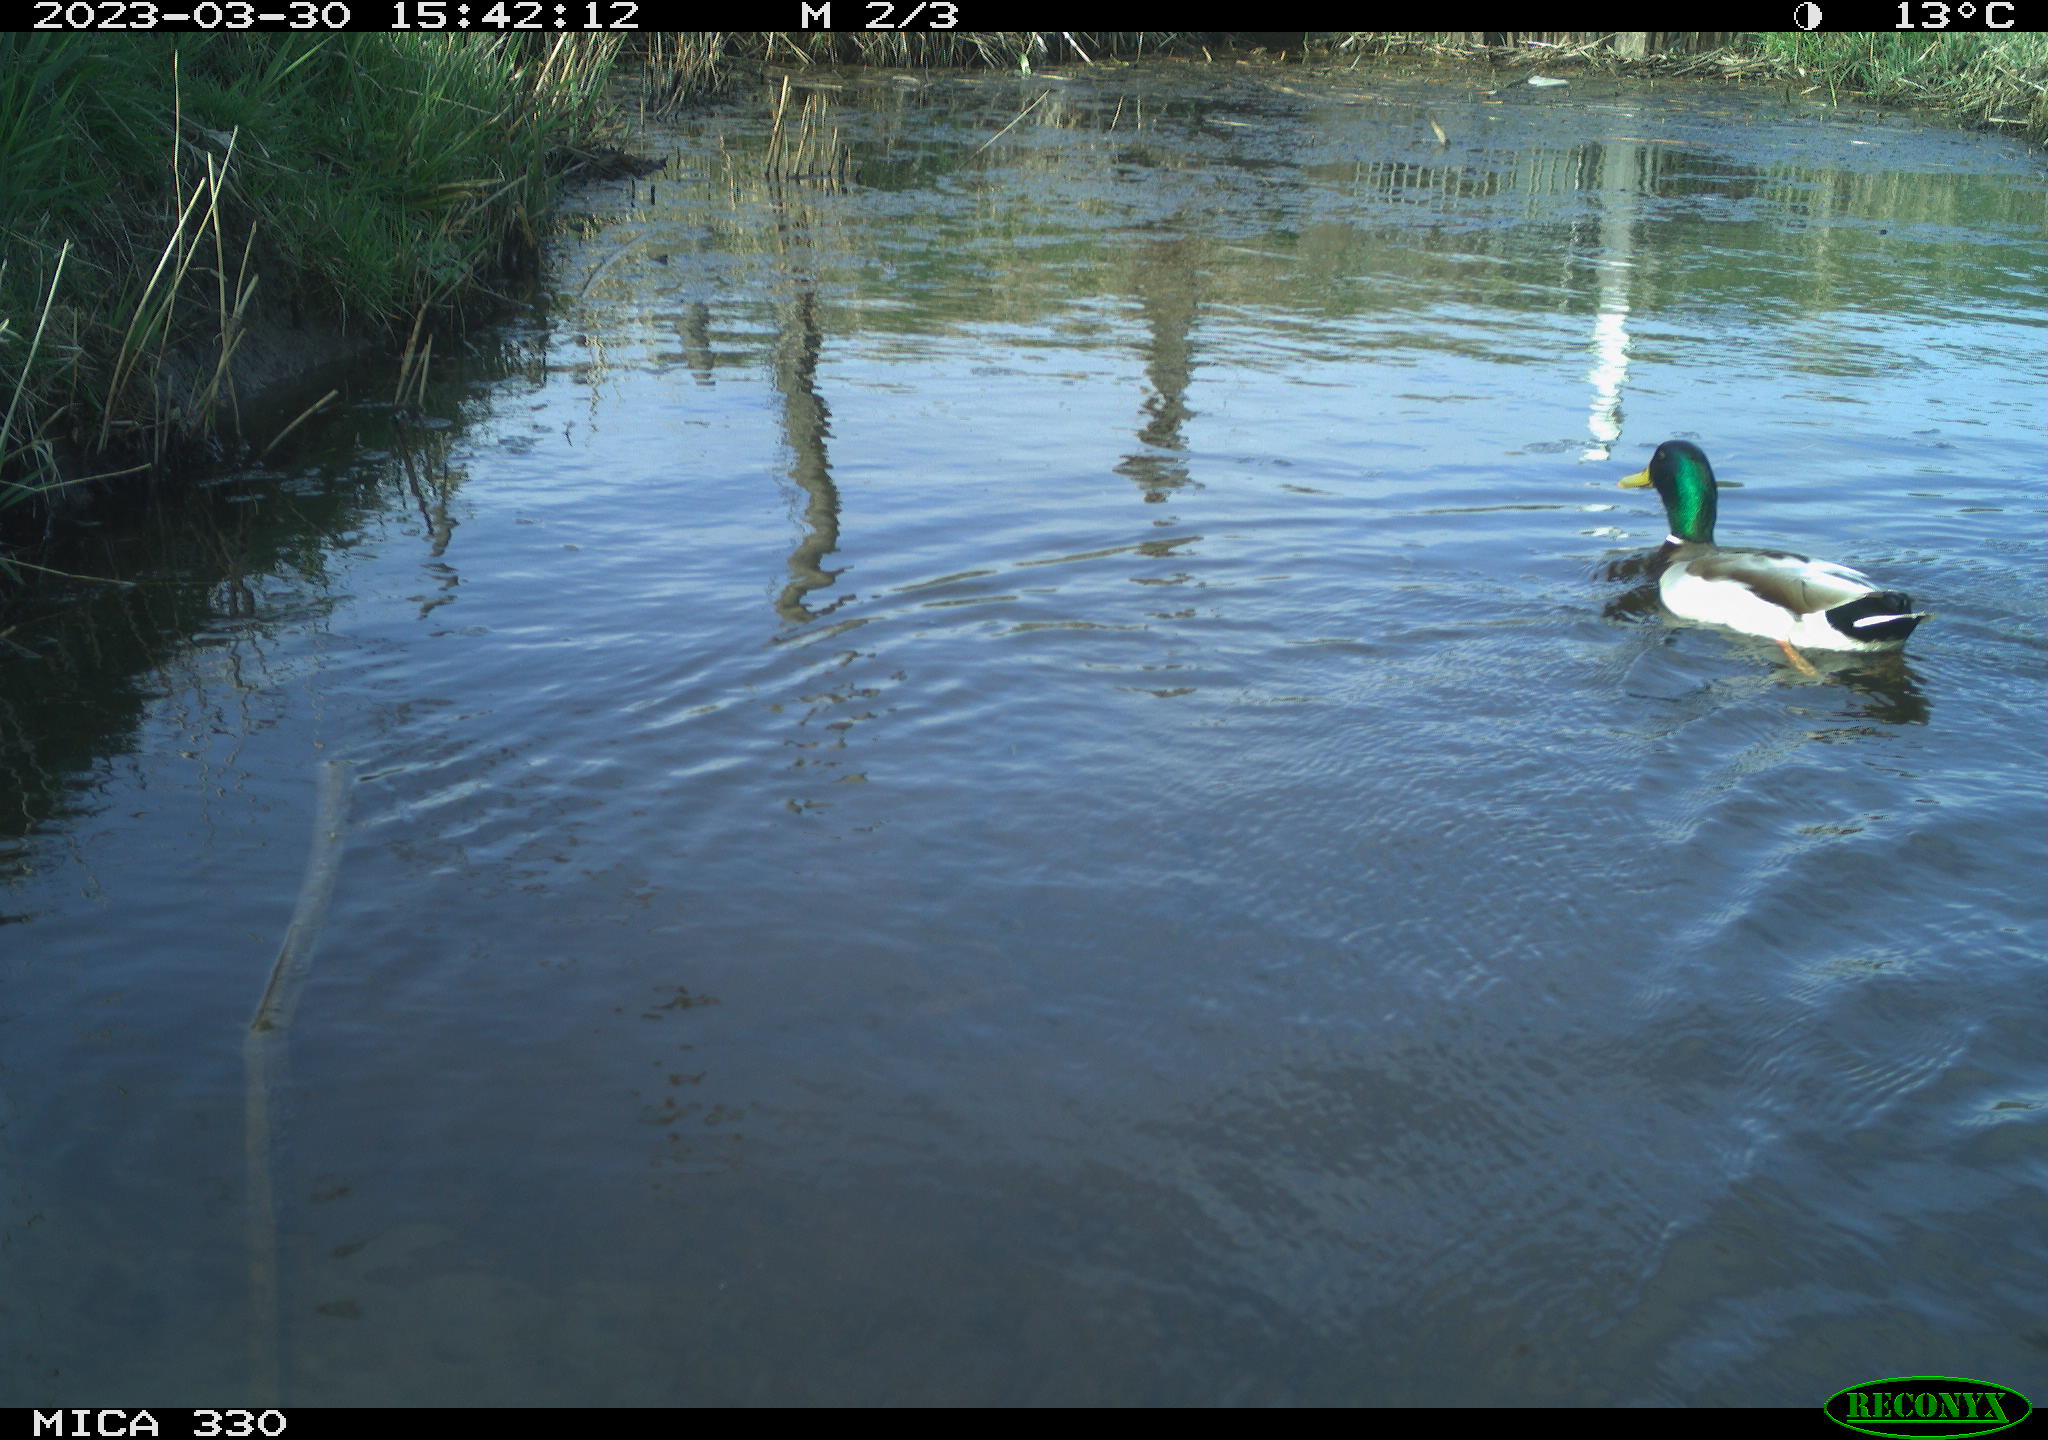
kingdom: Animalia
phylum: Chordata
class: Aves
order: Anseriformes
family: Anatidae
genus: Anas
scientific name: Anas platyrhynchos
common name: Mallard
